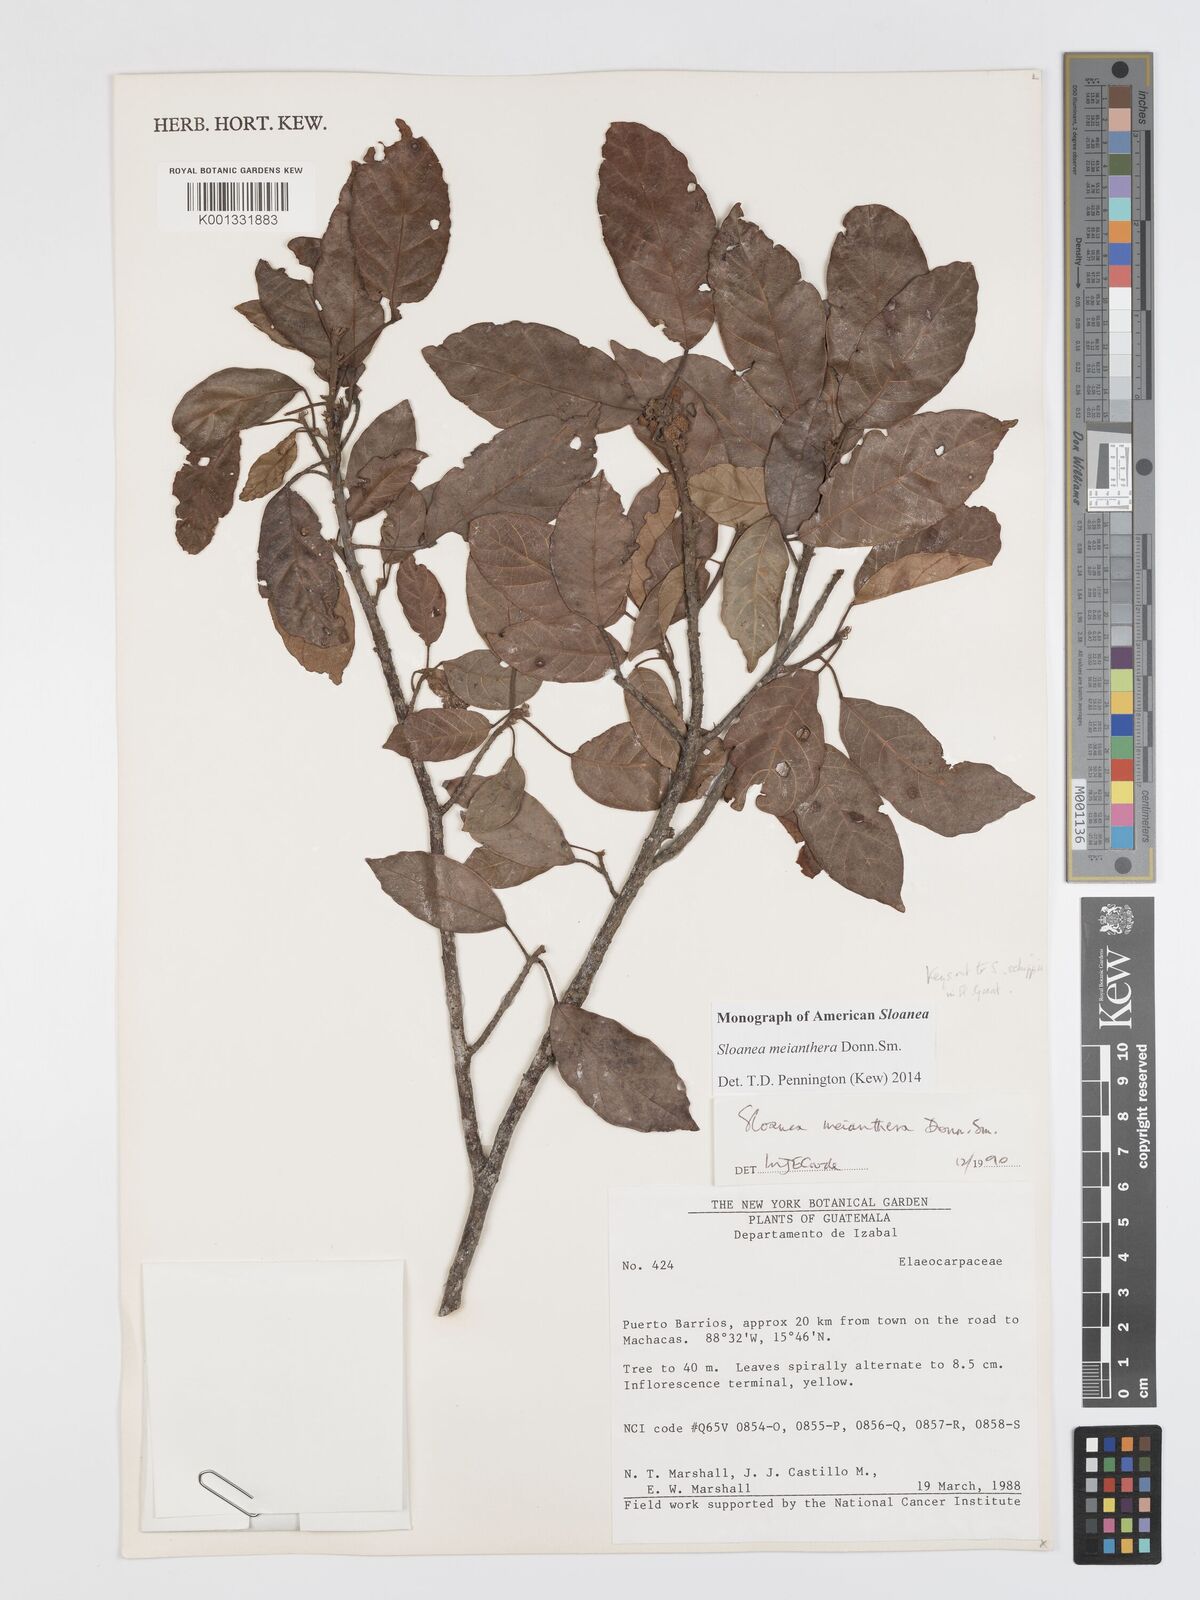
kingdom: Plantae
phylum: Tracheophyta
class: Magnoliopsida
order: Oxalidales
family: Elaeocarpaceae
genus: Sloanea
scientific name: Sloanea meianthera
